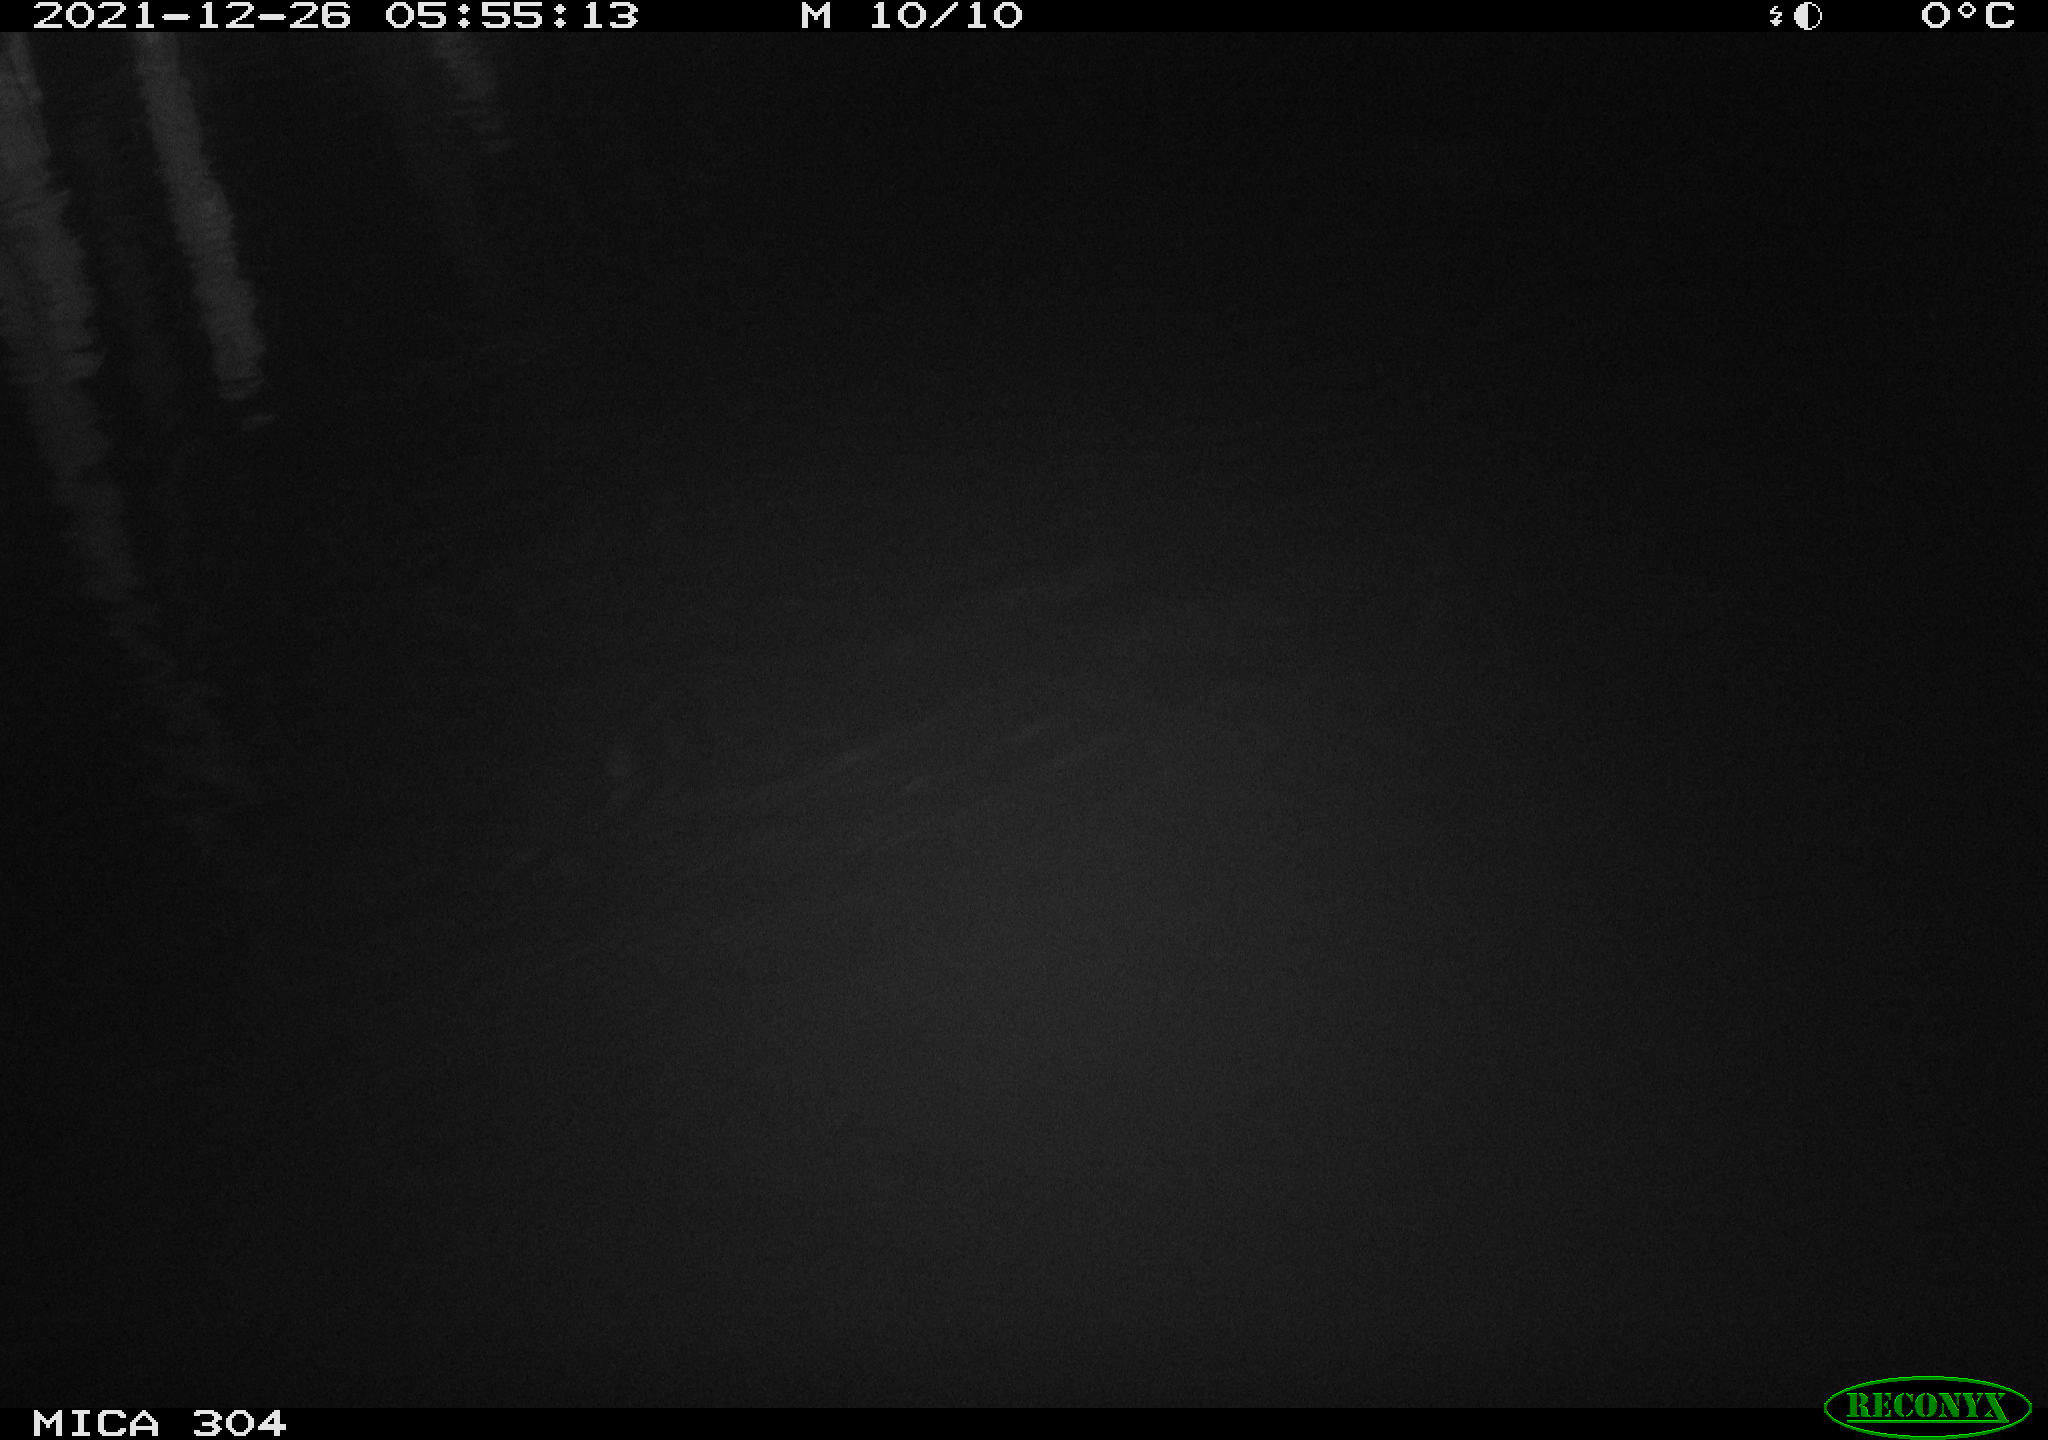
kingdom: Animalia
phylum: Chordata
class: Mammalia
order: Rodentia
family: Muridae
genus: Rattus
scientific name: Rattus norvegicus
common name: Brown rat
